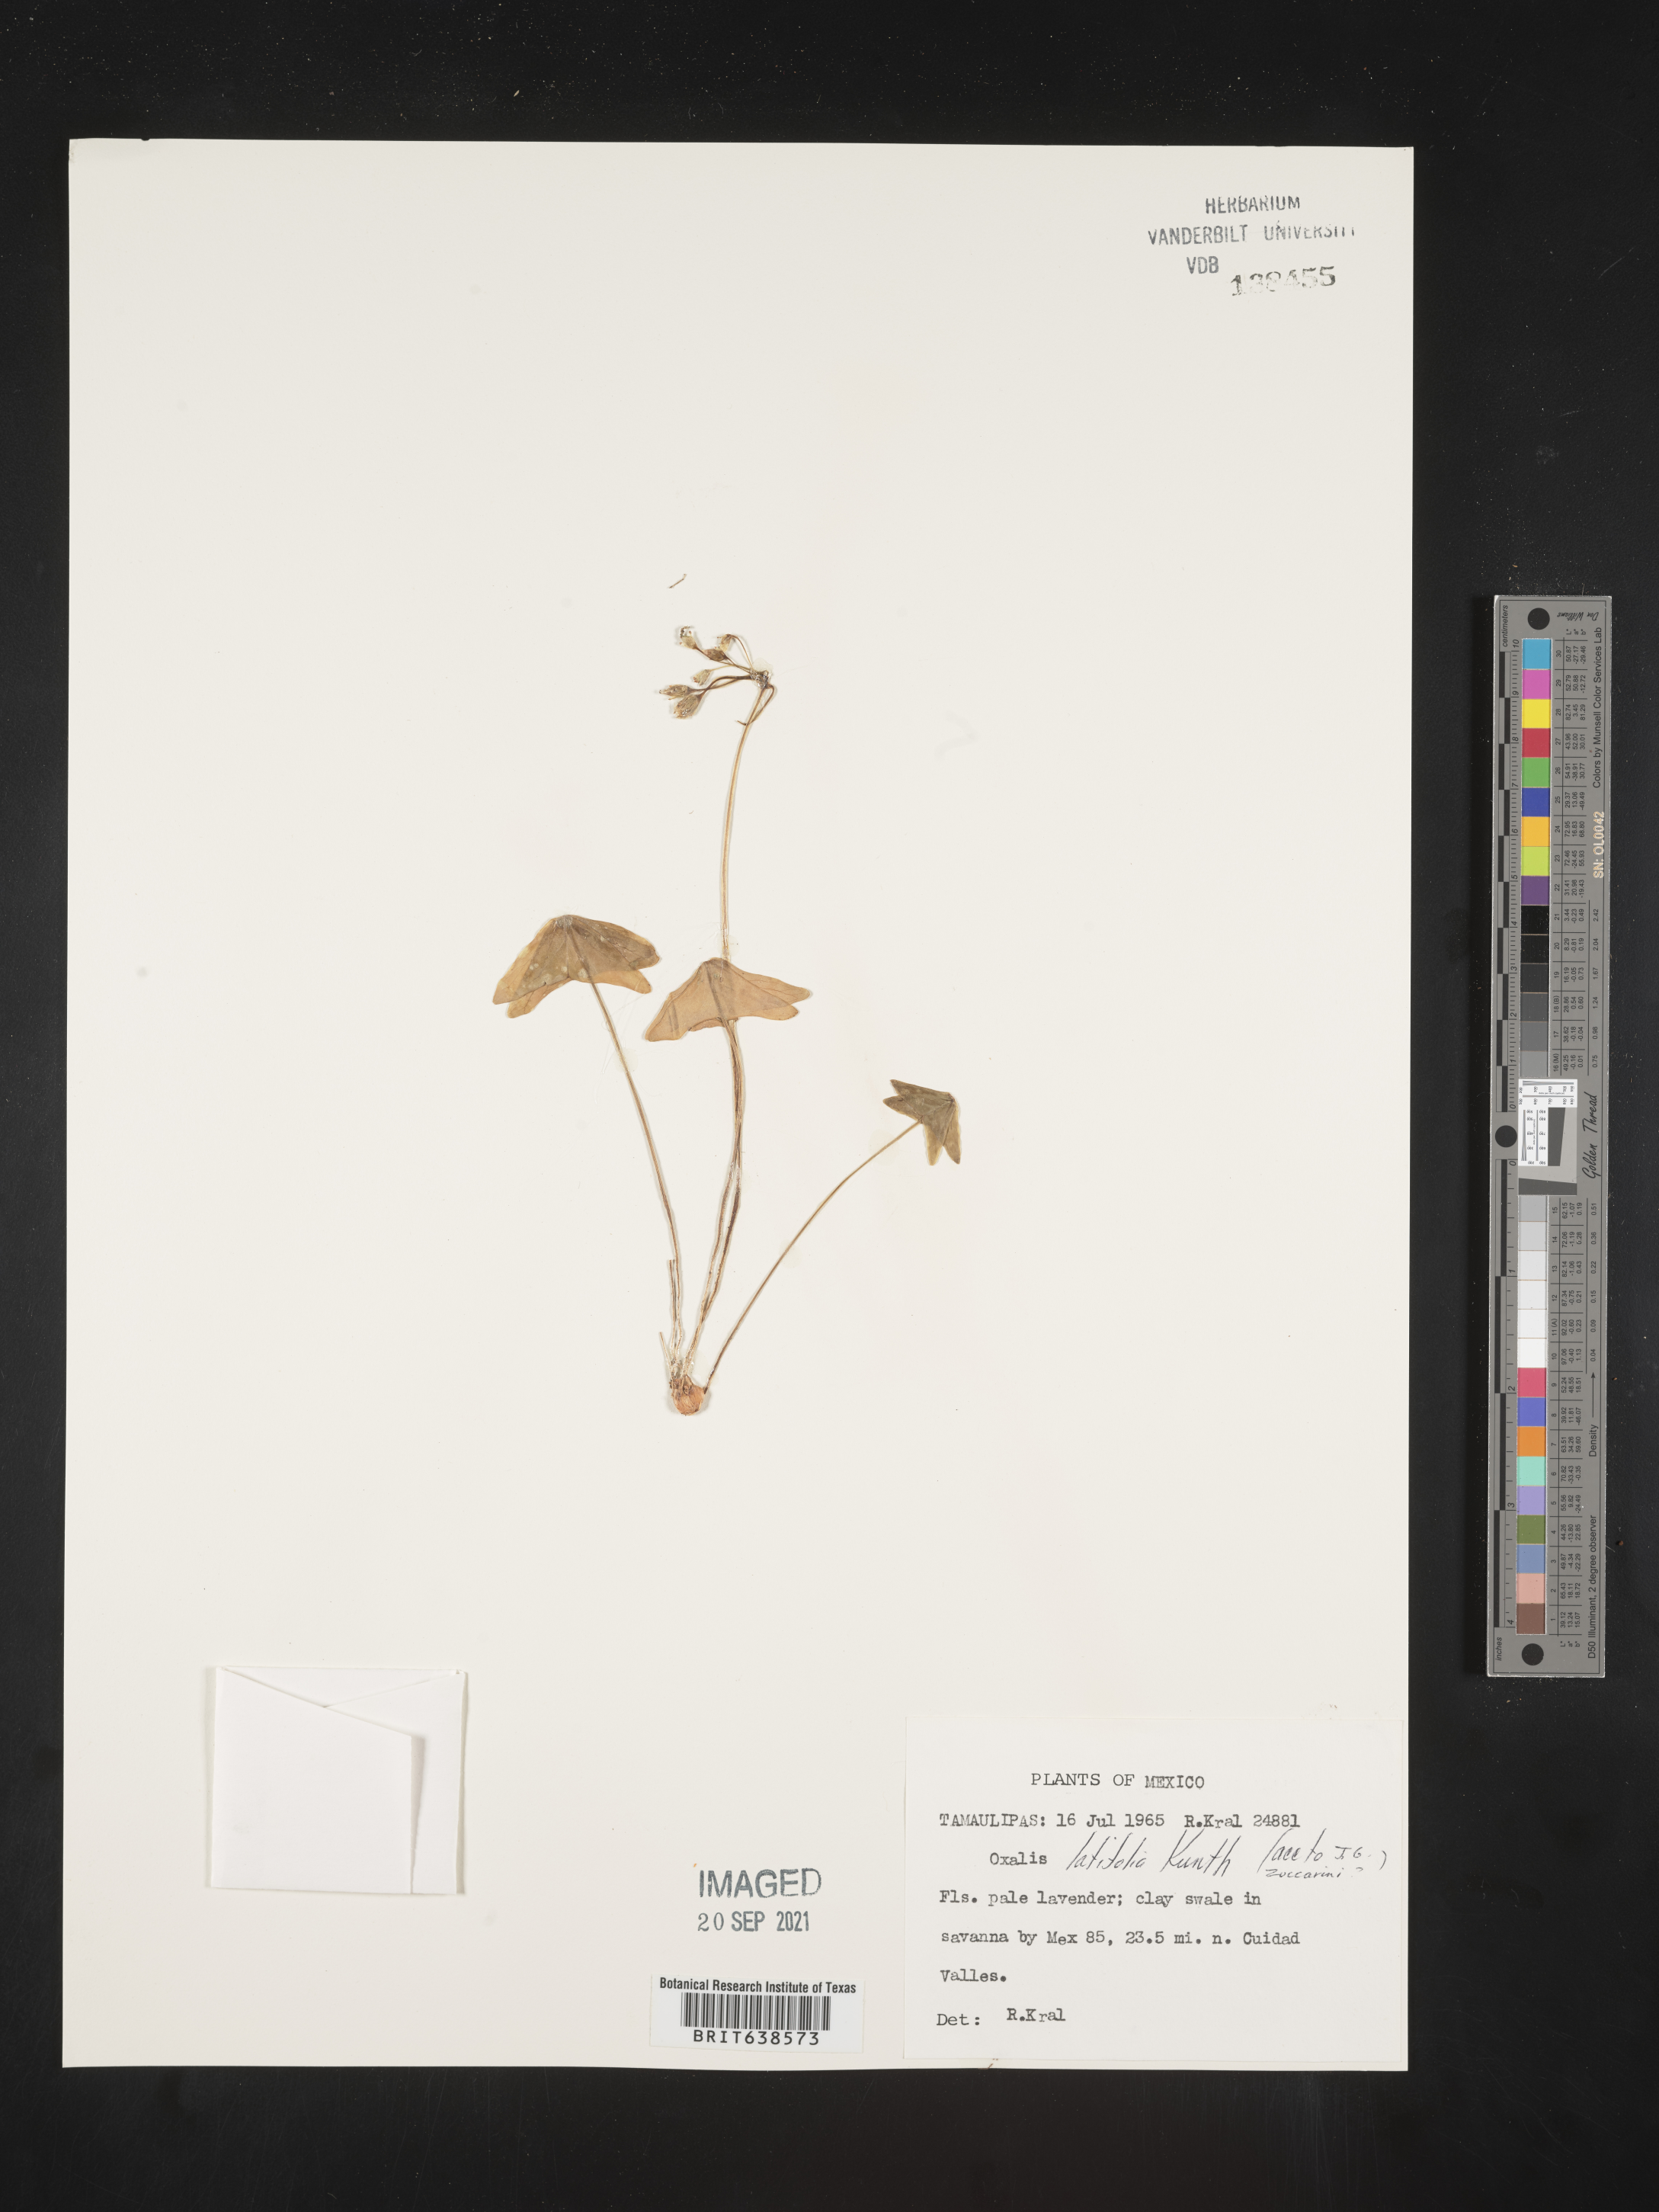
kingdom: Plantae
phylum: Tracheophyta
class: Magnoliopsida
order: Oxalidales
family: Oxalidaceae
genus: Oxalis
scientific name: Oxalis
